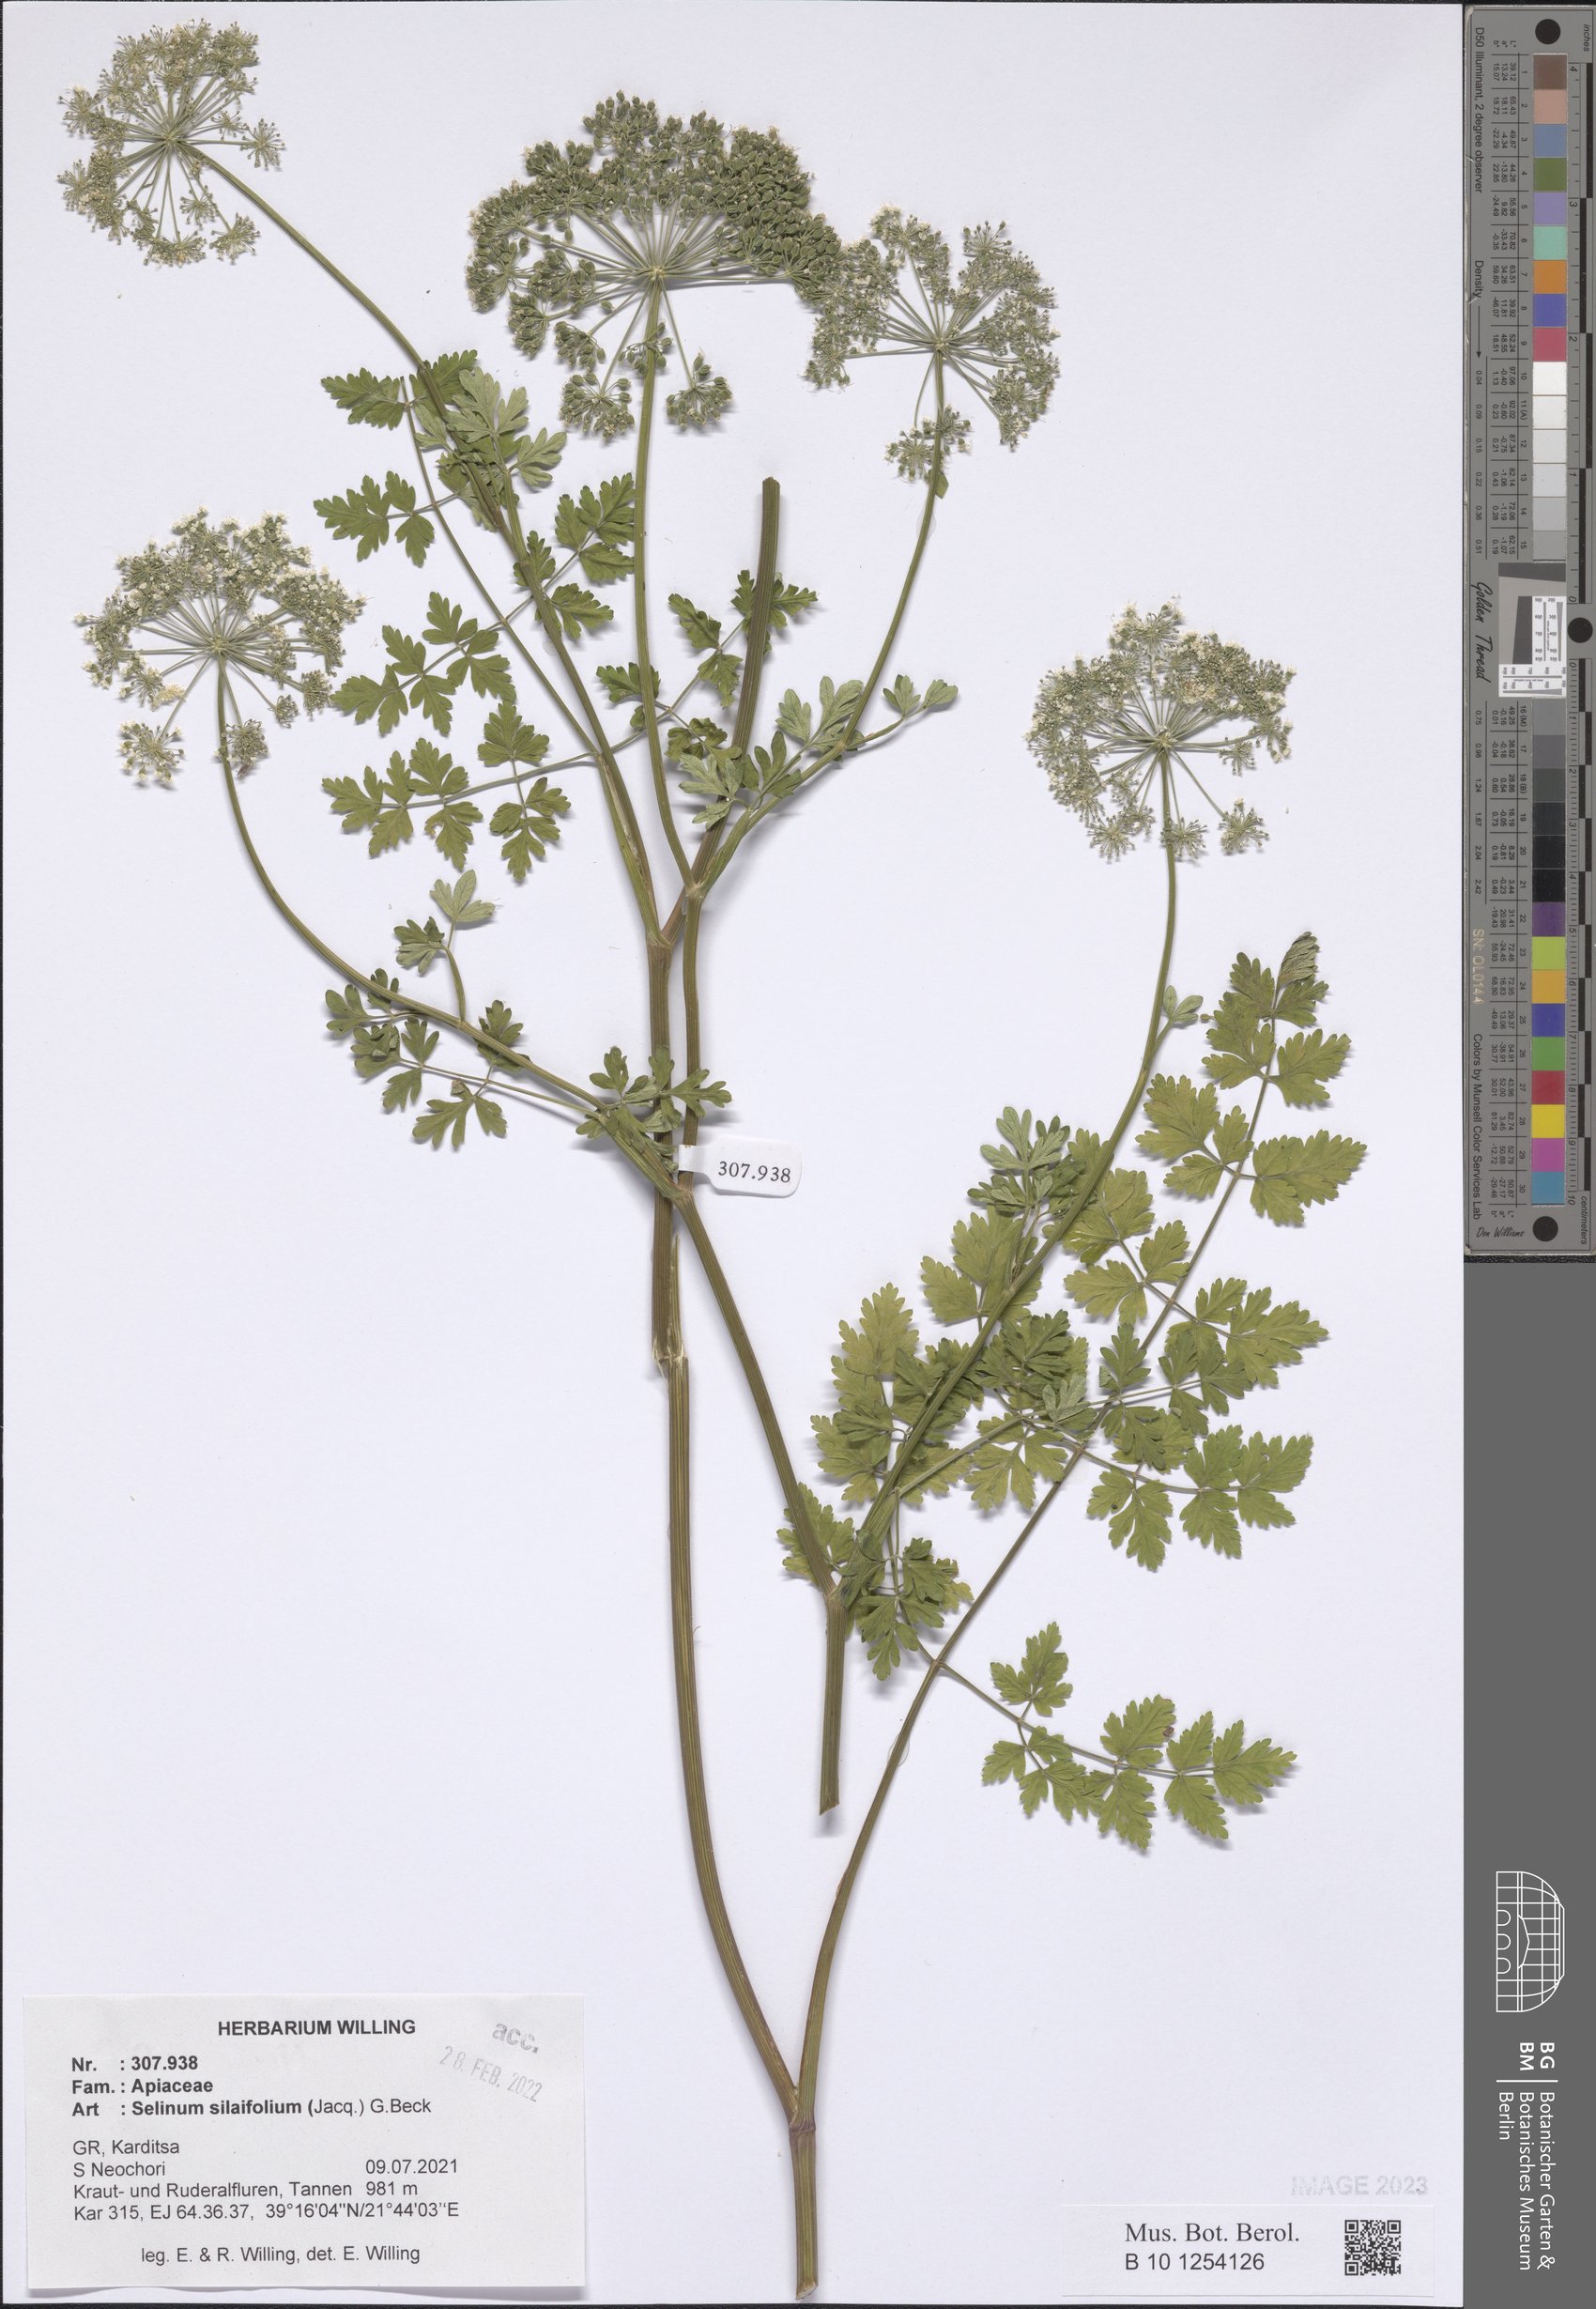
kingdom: Plantae
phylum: Tracheophyta
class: Magnoliopsida
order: Apiales
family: Apiaceae
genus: Katapsuxis
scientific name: Katapsuxis silaifolia
